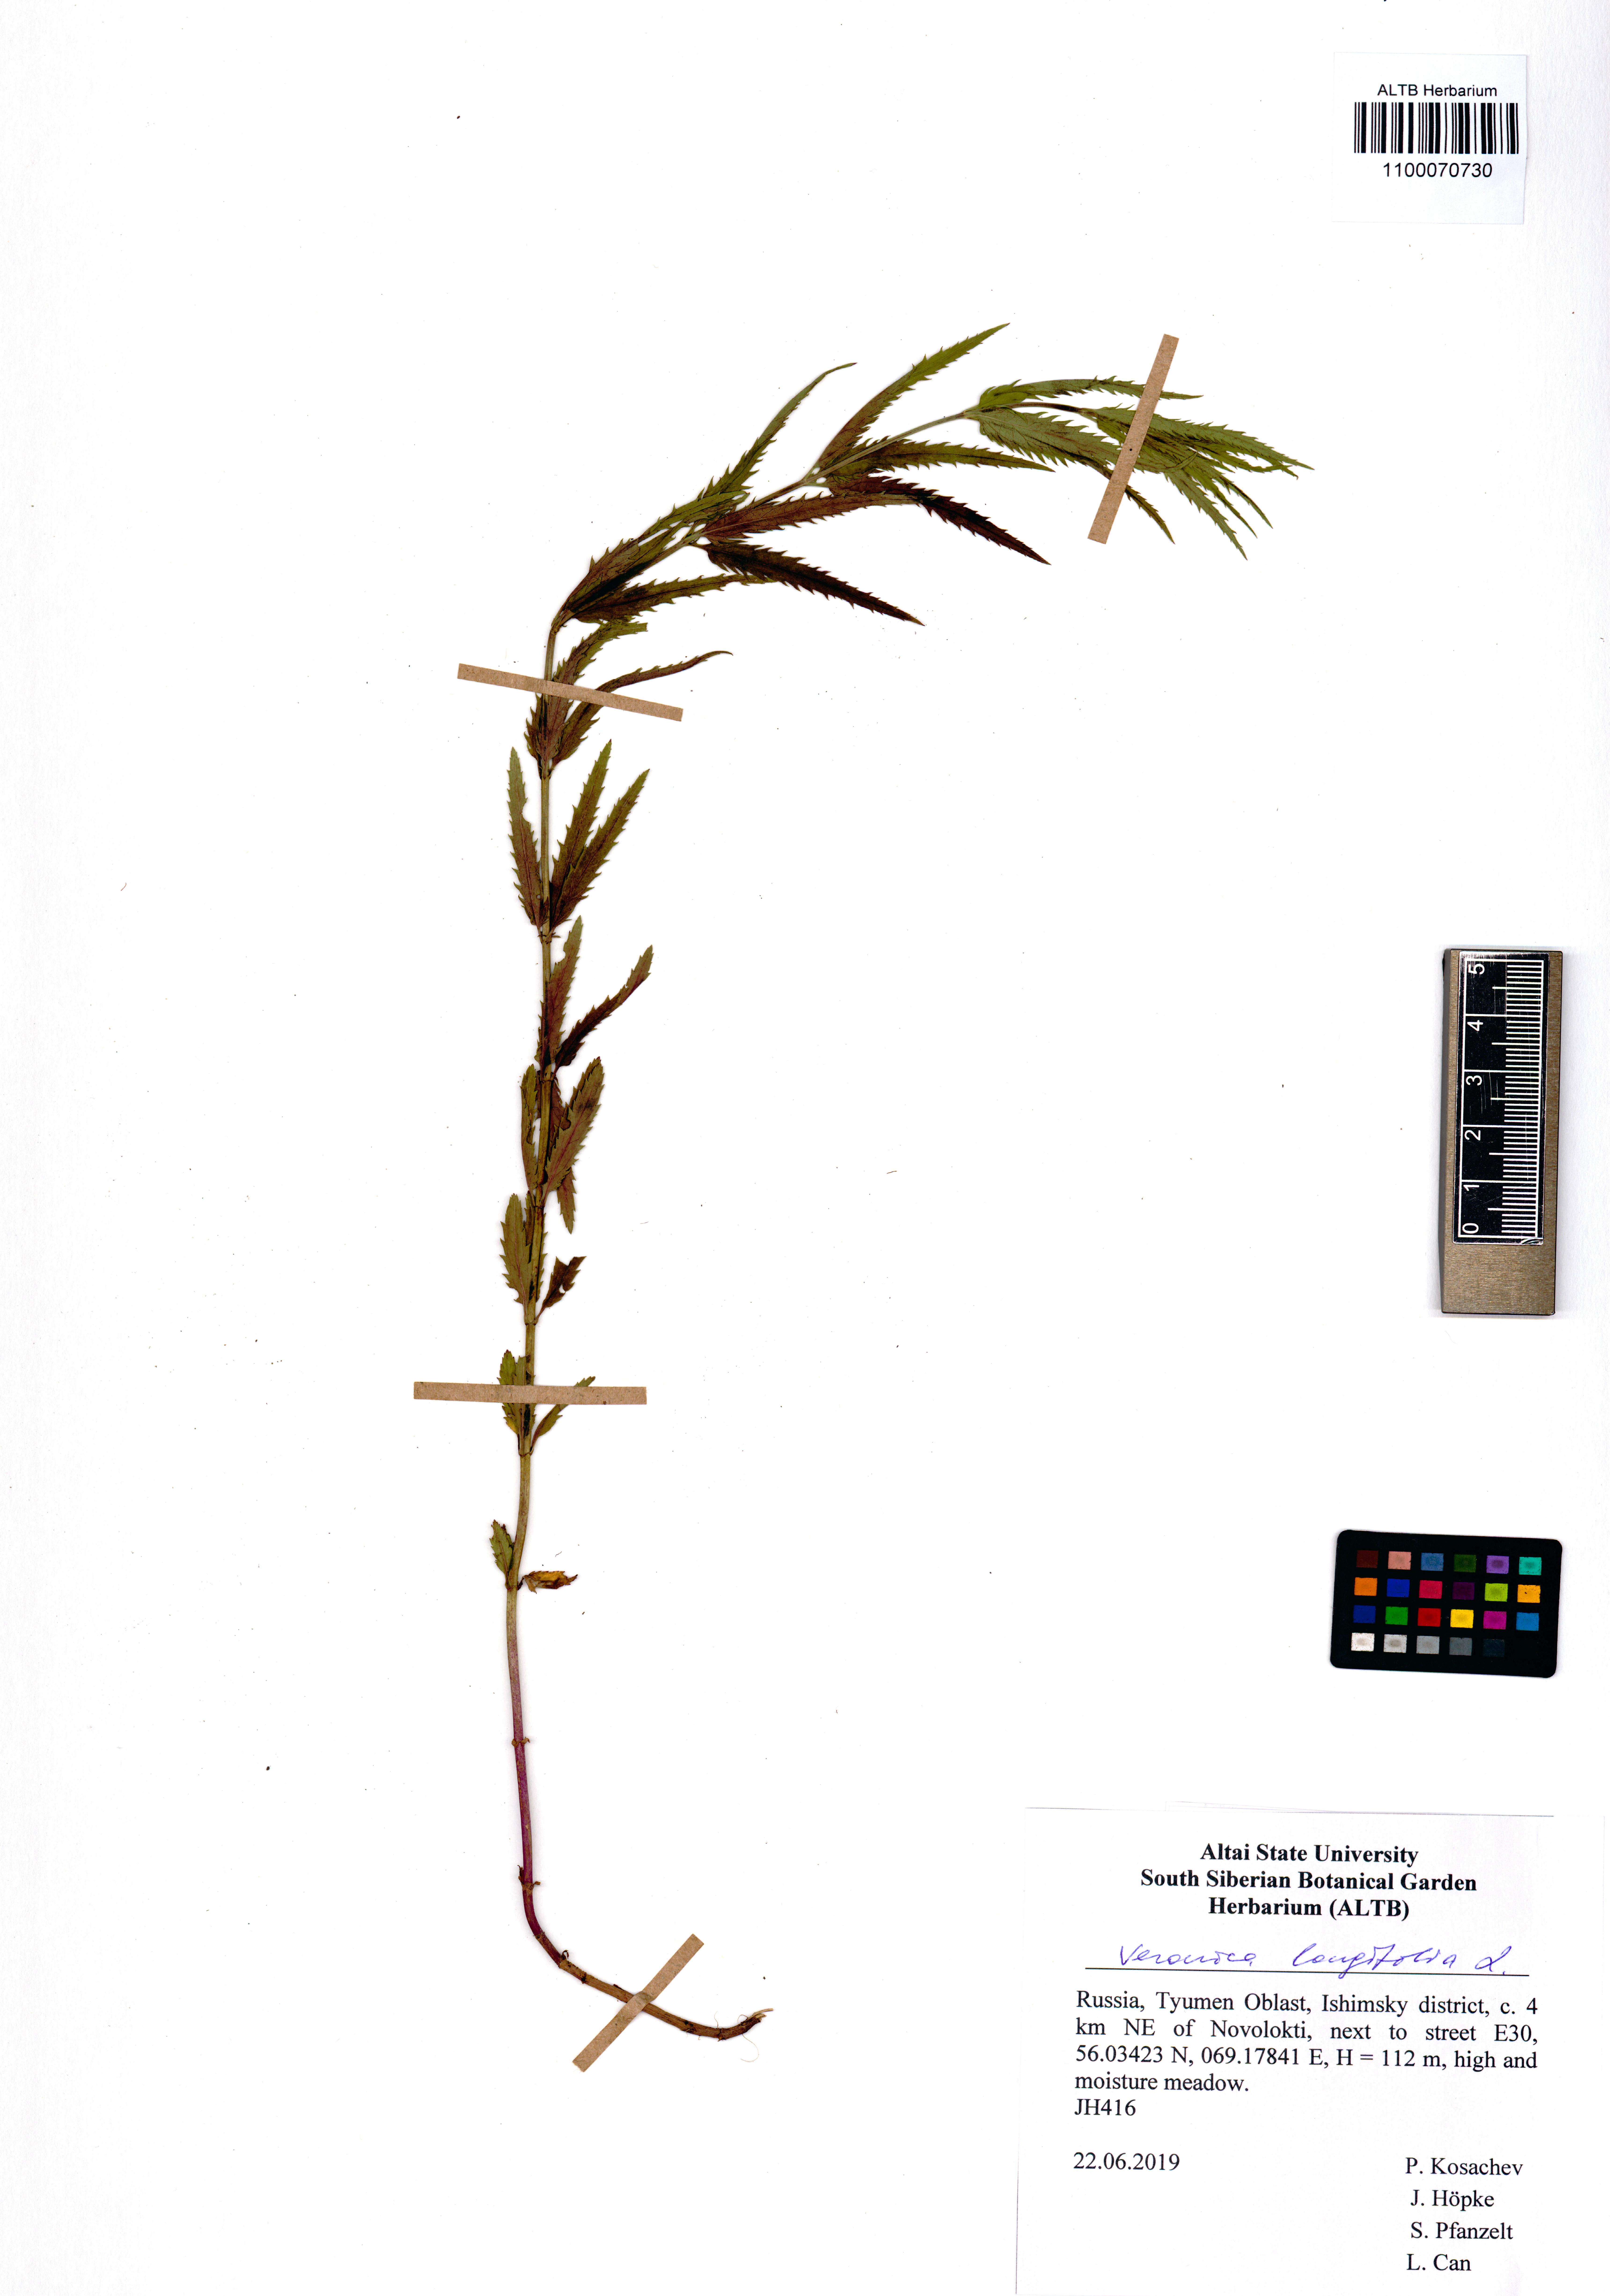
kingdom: Plantae
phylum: Tracheophyta
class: Magnoliopsida
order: Lamiales
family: Plantaginaceae
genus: Veronica
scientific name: Veronica longifolia
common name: Garden speedwell
